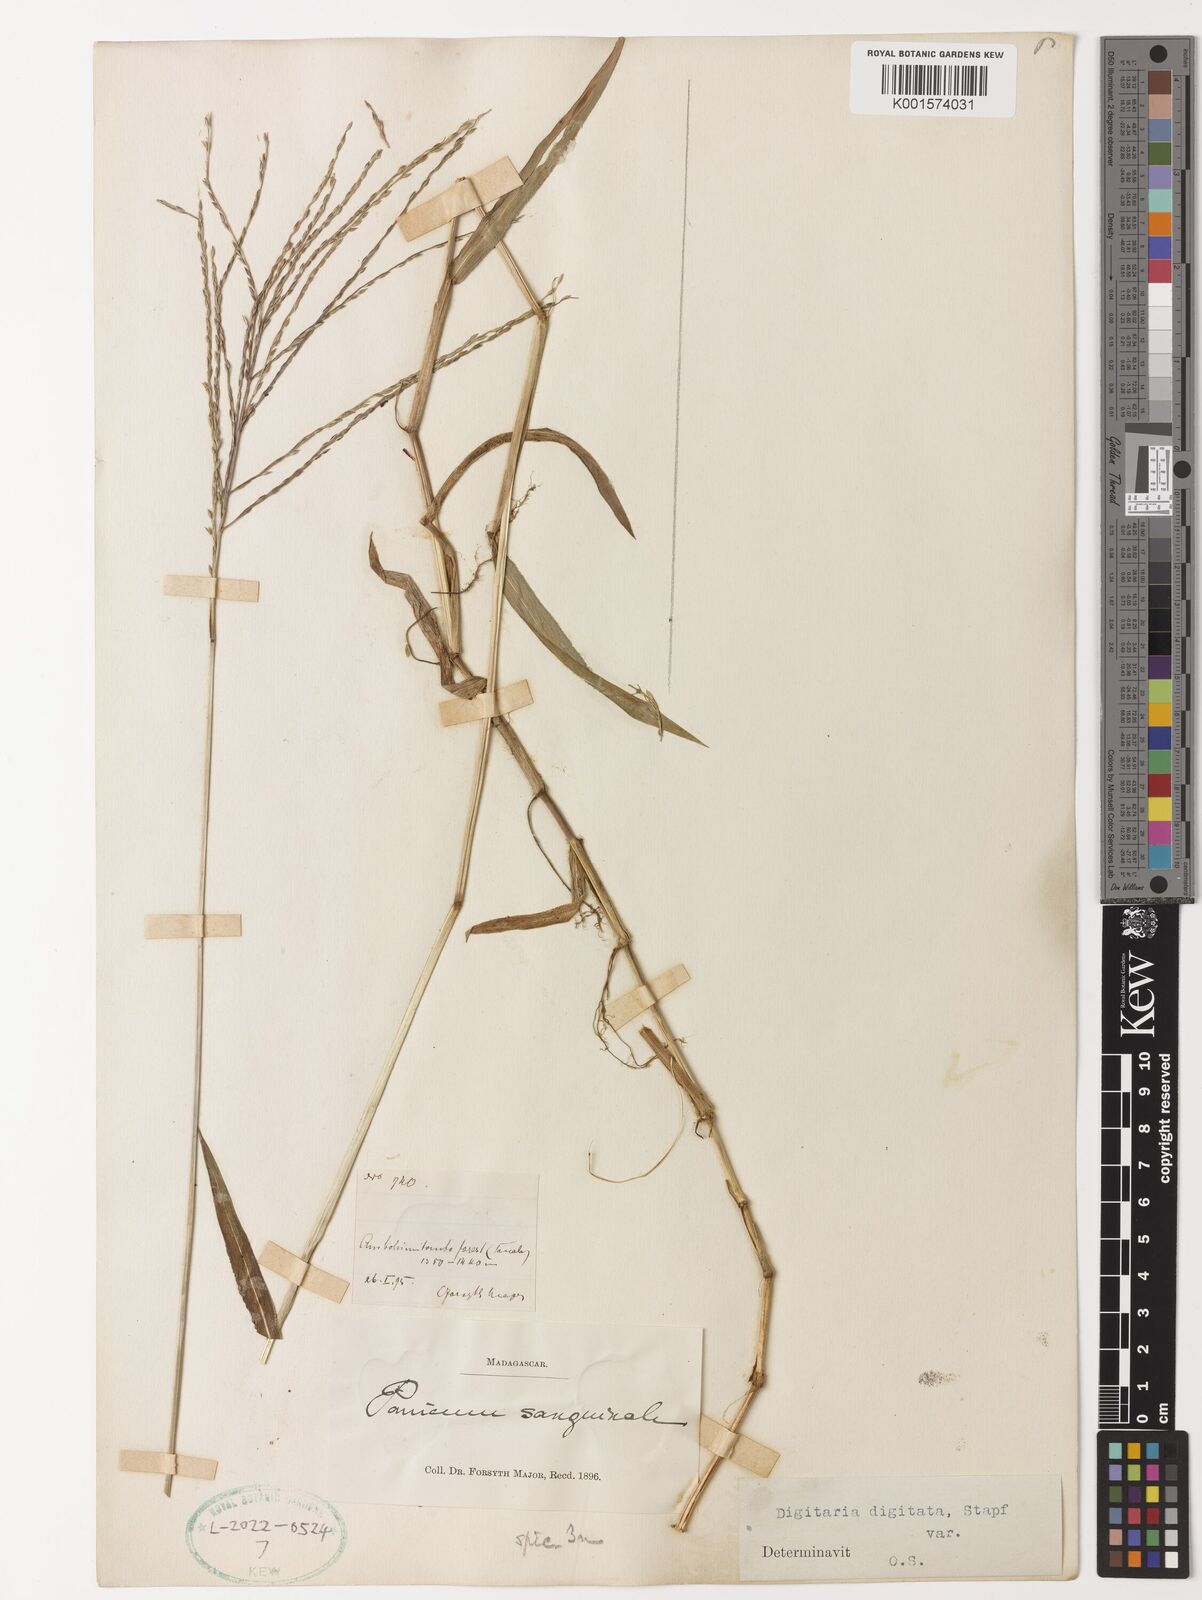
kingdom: Plantae
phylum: Tracheophyta
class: Liliopsida
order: Poales
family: Poaceae
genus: Digitaria
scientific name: Digitaria horizontalis
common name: Jamaican crabgrass
